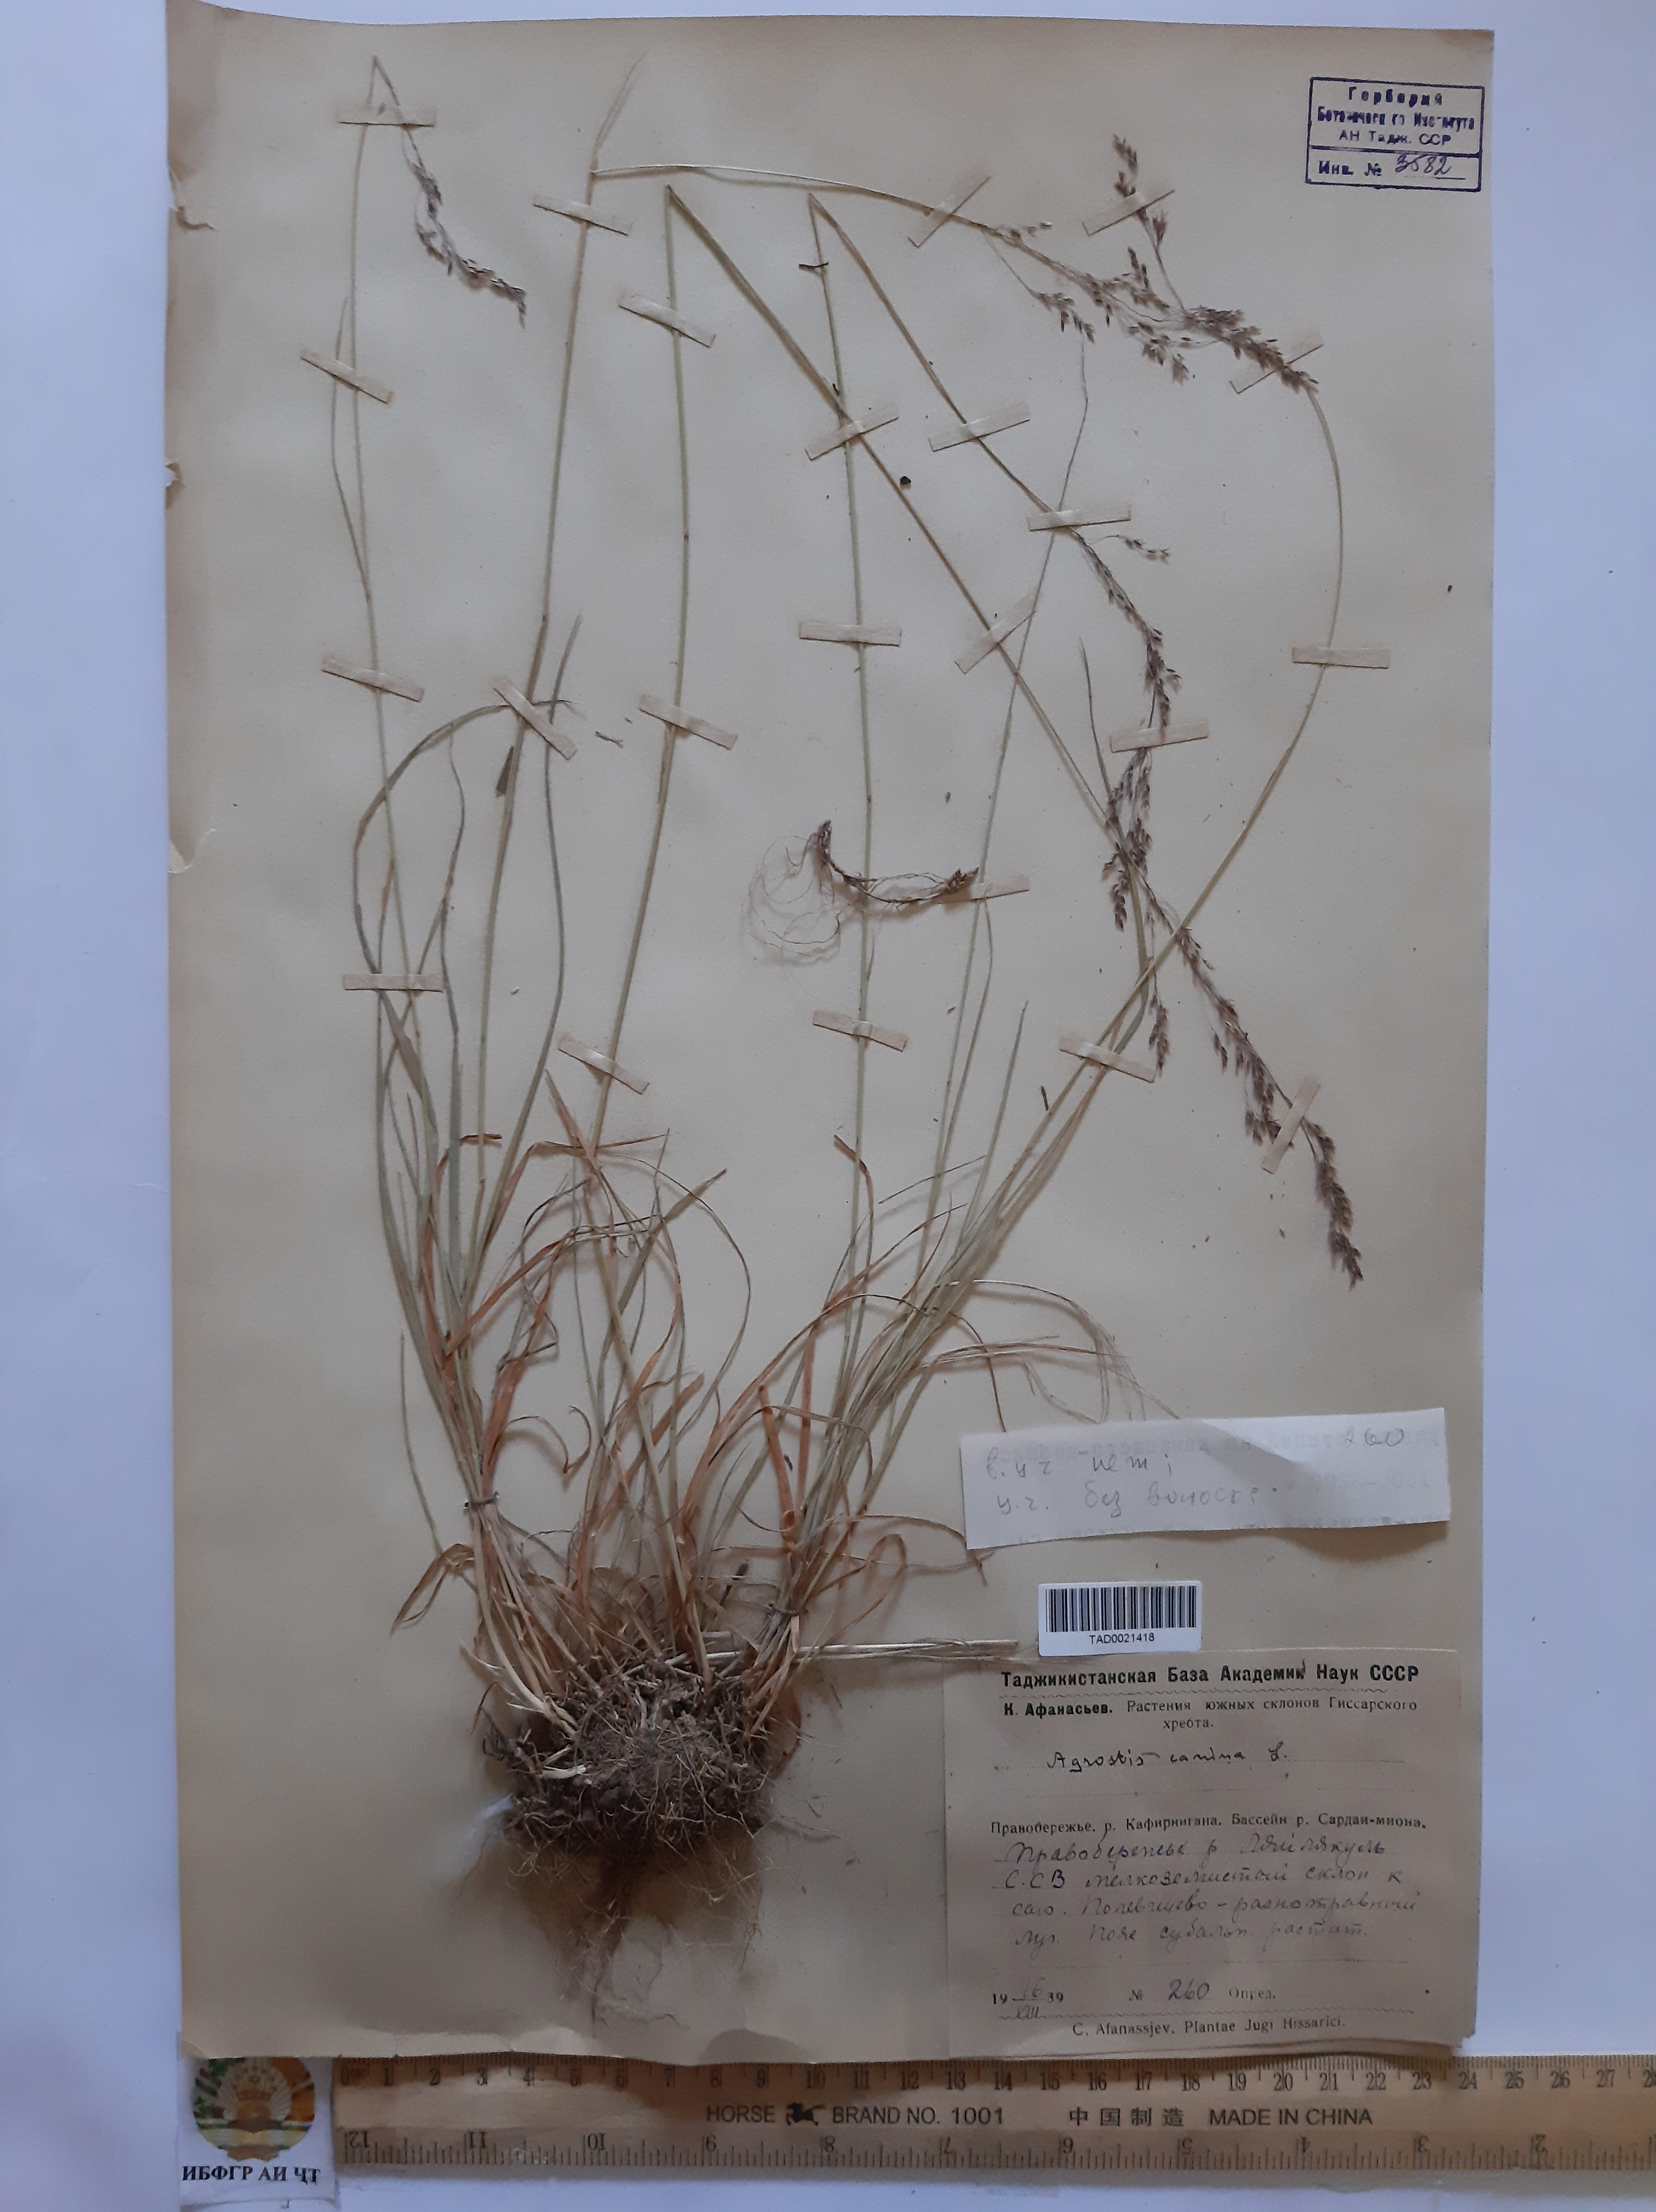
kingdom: Plantae
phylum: Tracheophyta
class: Liliopsida
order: Poales
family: Poaceae
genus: Agrostis
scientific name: Agrostis canina
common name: Velvet bent
